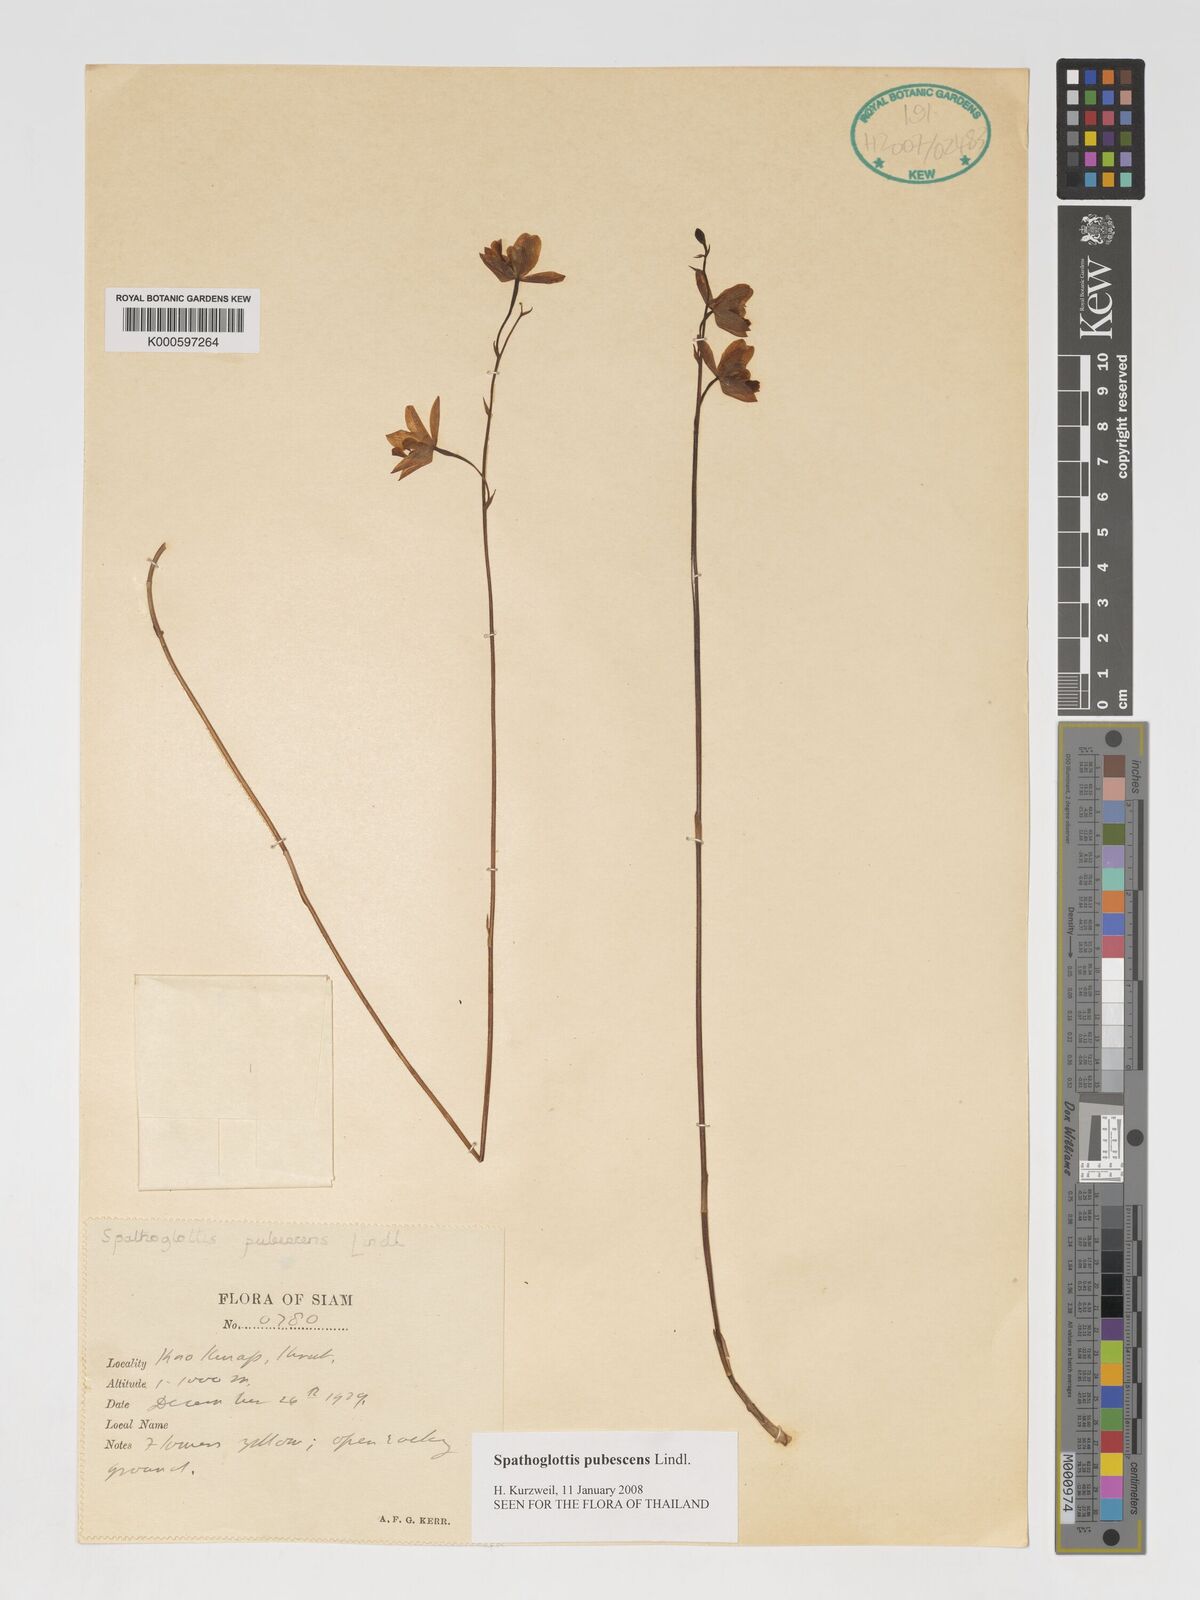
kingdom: Plantae
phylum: Tracheophyta
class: Liliopsida
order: Asparagales
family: Orchidaceae
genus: Spathoglottis
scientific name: Spathoglottis pubescens
